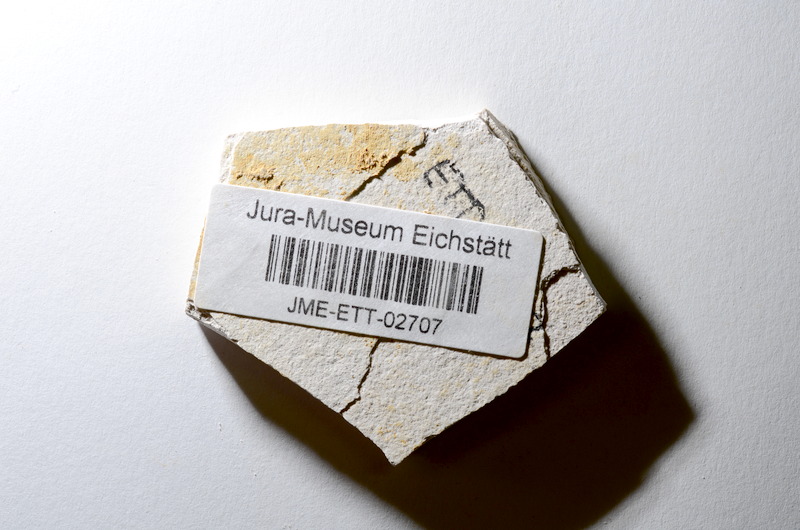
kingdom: Animalia
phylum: Chordata
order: Salmoniformes
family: Orthogonikleithridae
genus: Orthogonikleithrus
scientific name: Orthogonikleithrus hoelli
